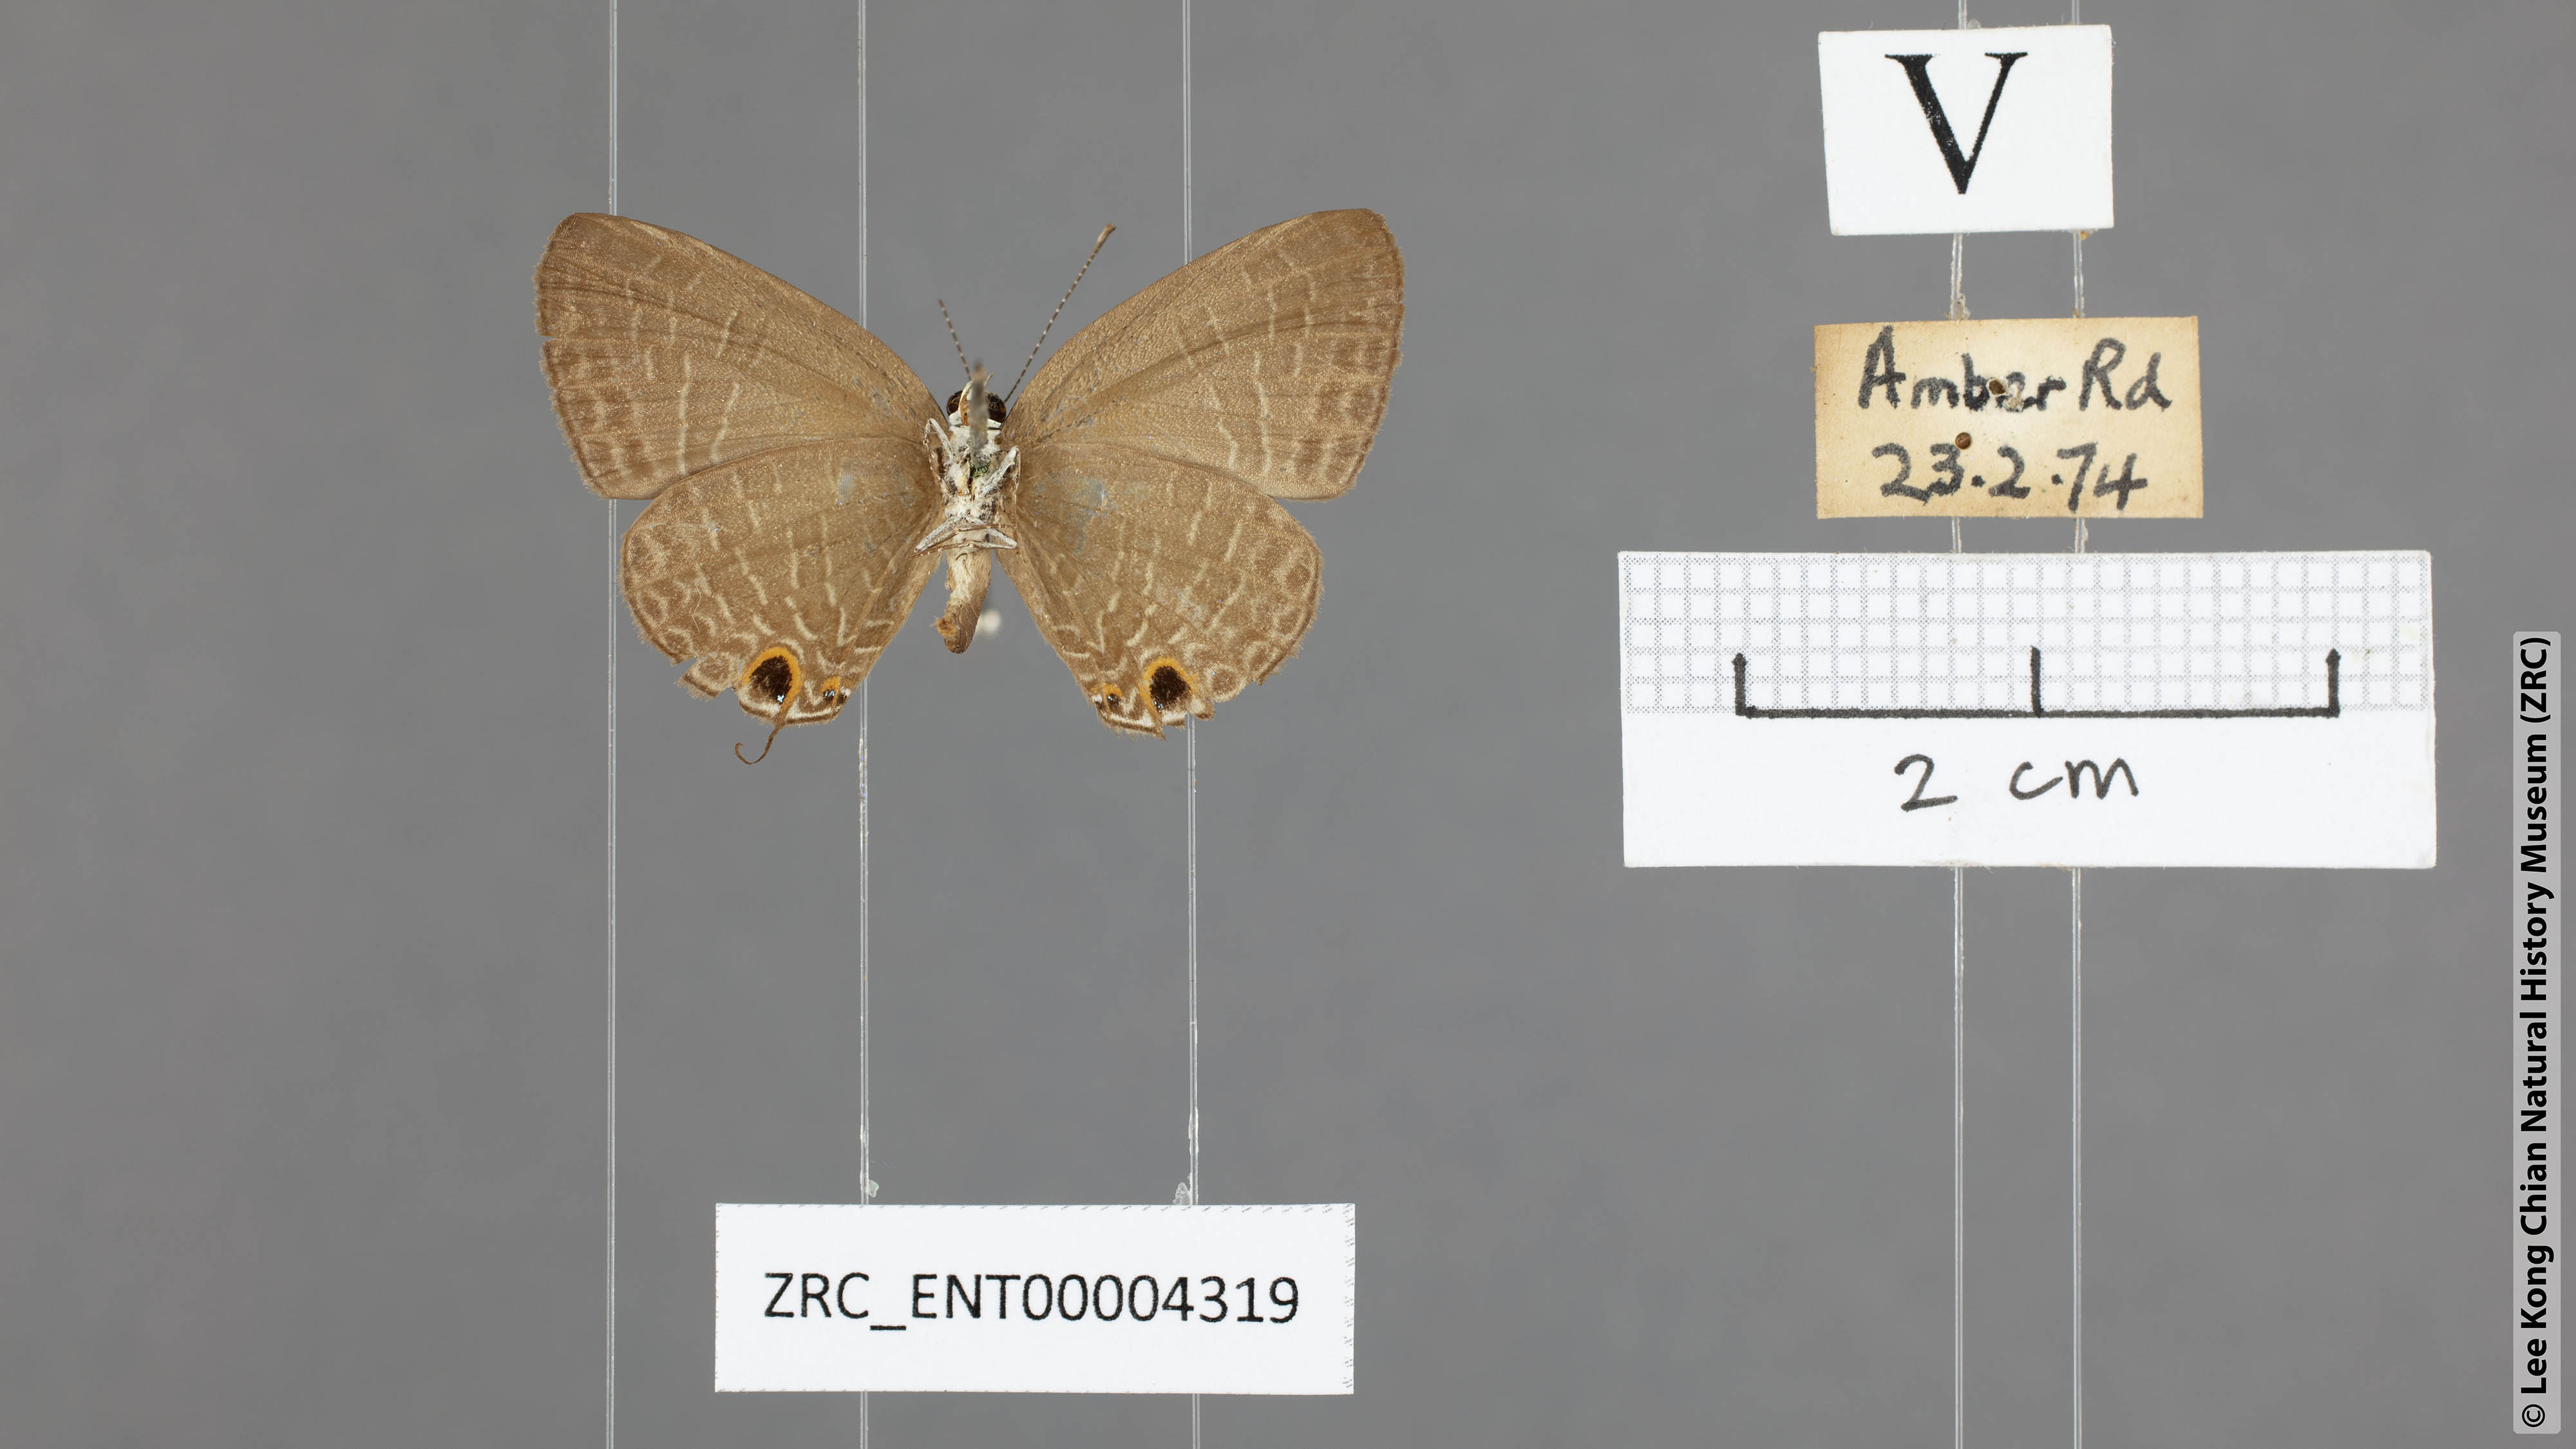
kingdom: Animalia
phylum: Arthropoda
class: Insecta
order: Lepidoptera
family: Lycaenidae
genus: Jamides
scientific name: Jamides bochus
